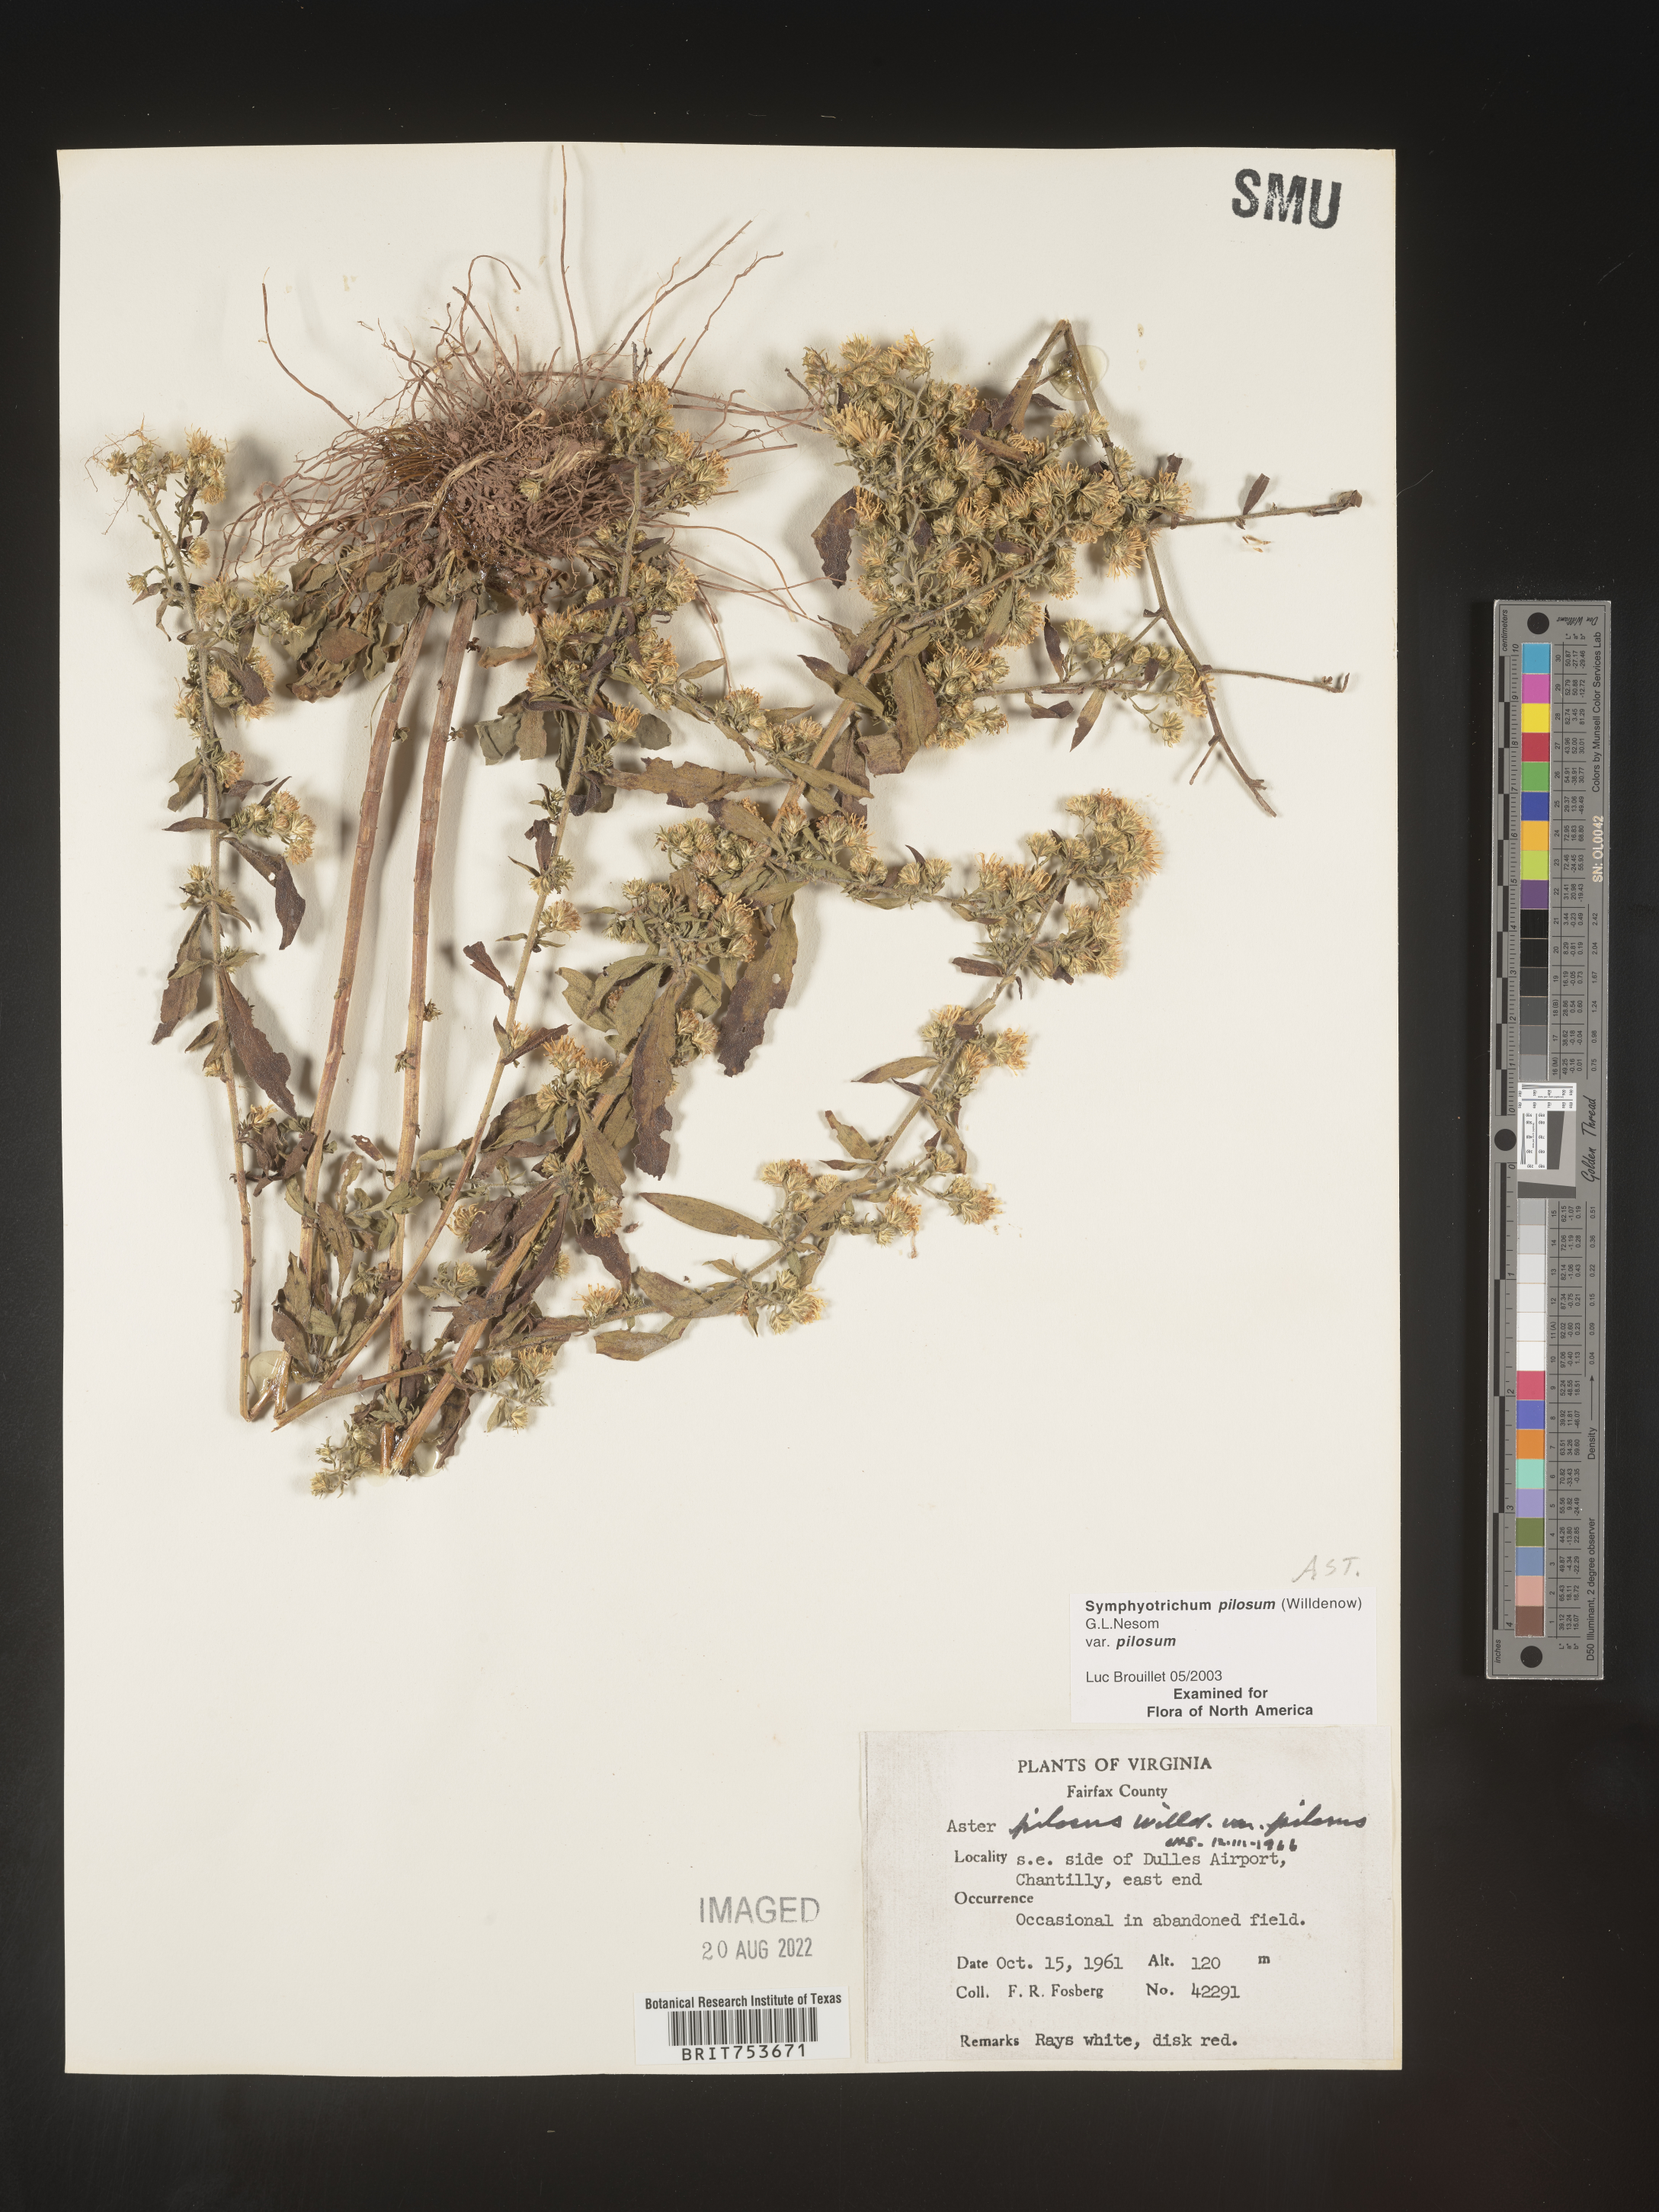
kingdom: Plantae
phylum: Tracheophyta
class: Magnoliopsida
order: Asterales
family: Asteraceae
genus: Symphyotrichum
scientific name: Symphyotrichum pilosum
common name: Awl aster
